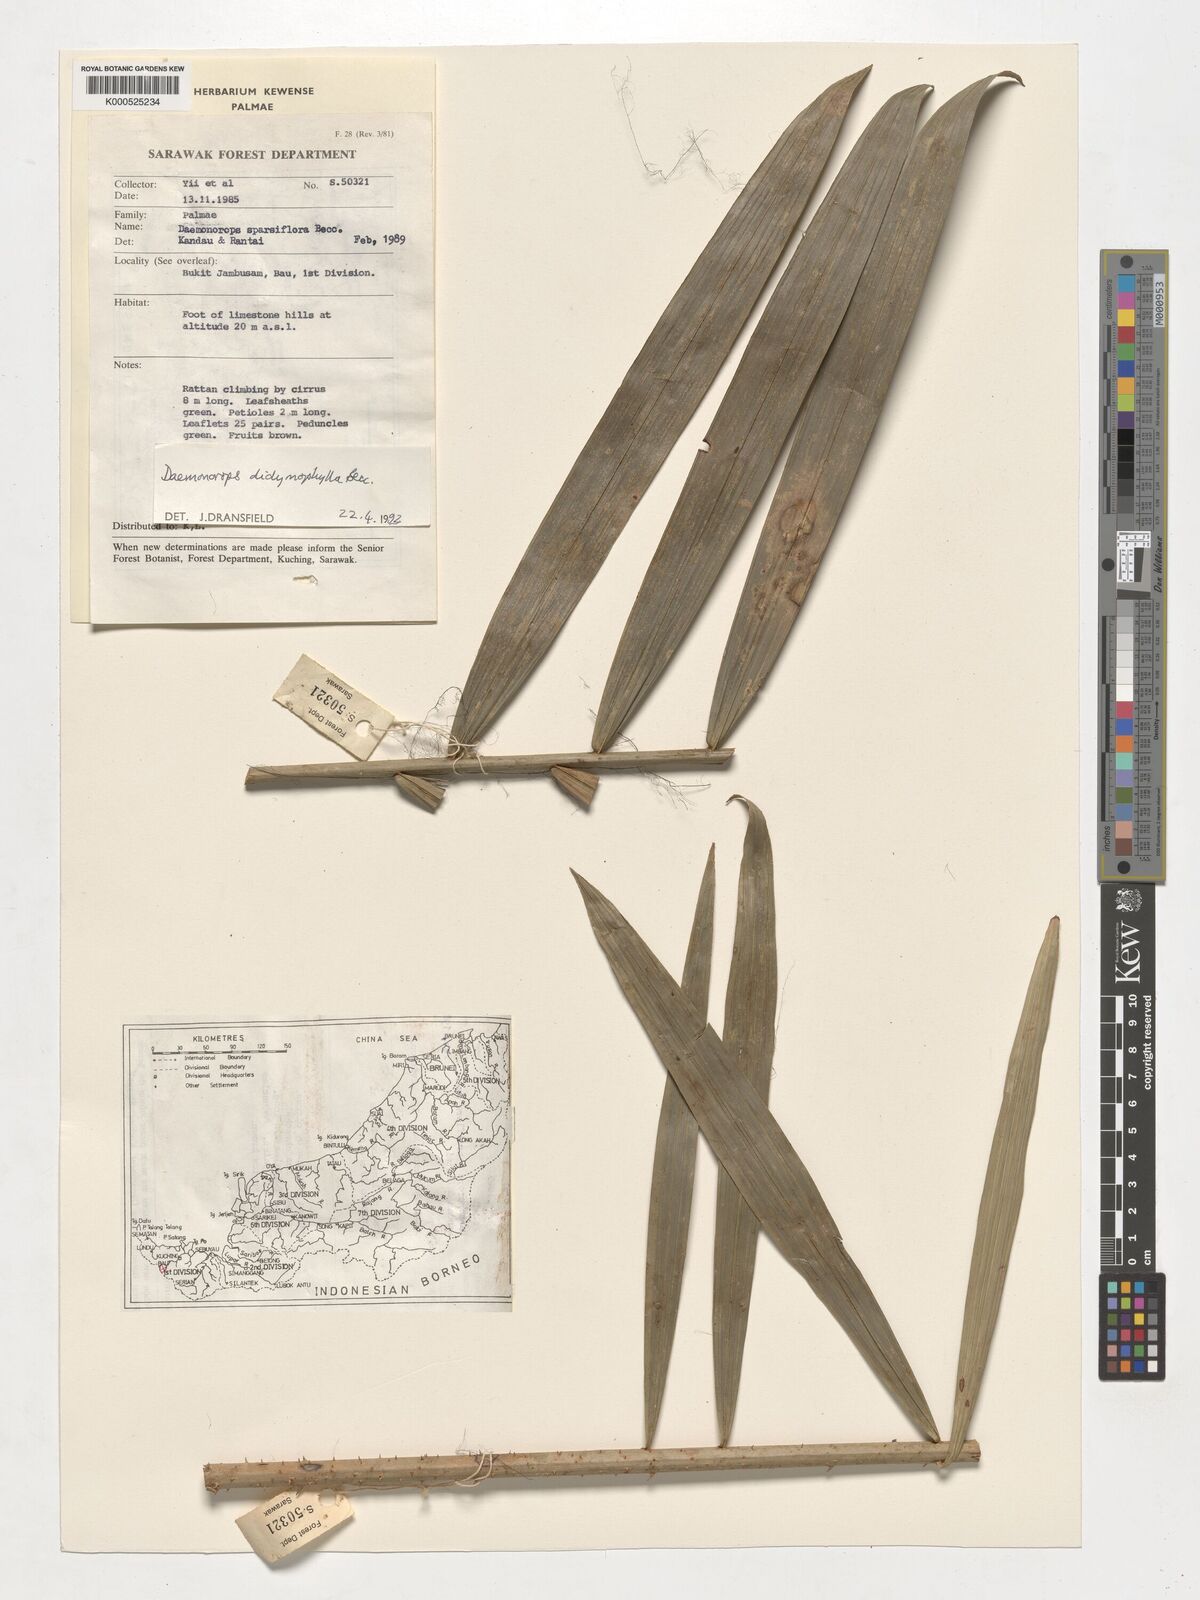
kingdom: Plantae
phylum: Tracheophyta
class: Liliopsida
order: Arecales
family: Arecaceae
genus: Calamus
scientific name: Calamus gracilipes
